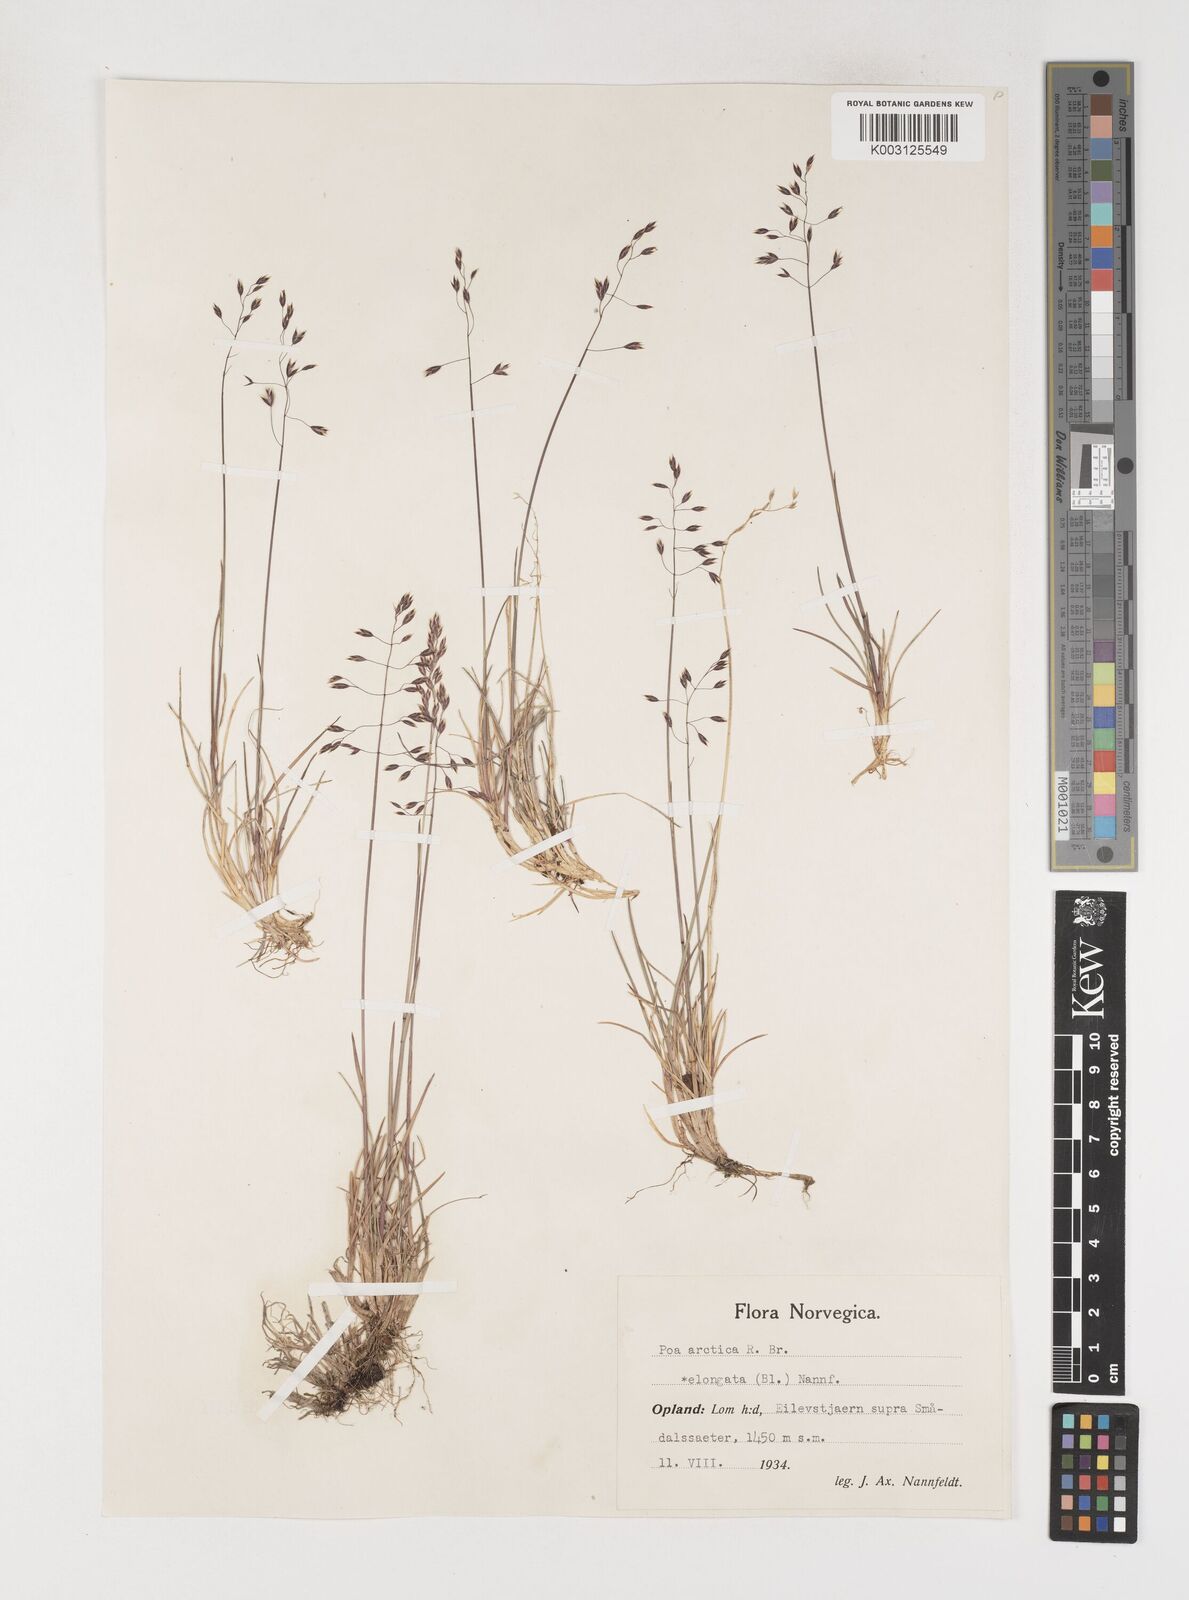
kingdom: Plantae
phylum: Tracheophyta
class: Liliopsida
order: Poales
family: Poaceae
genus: Poa
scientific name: Poa arctica
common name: Arctic bluegrass
